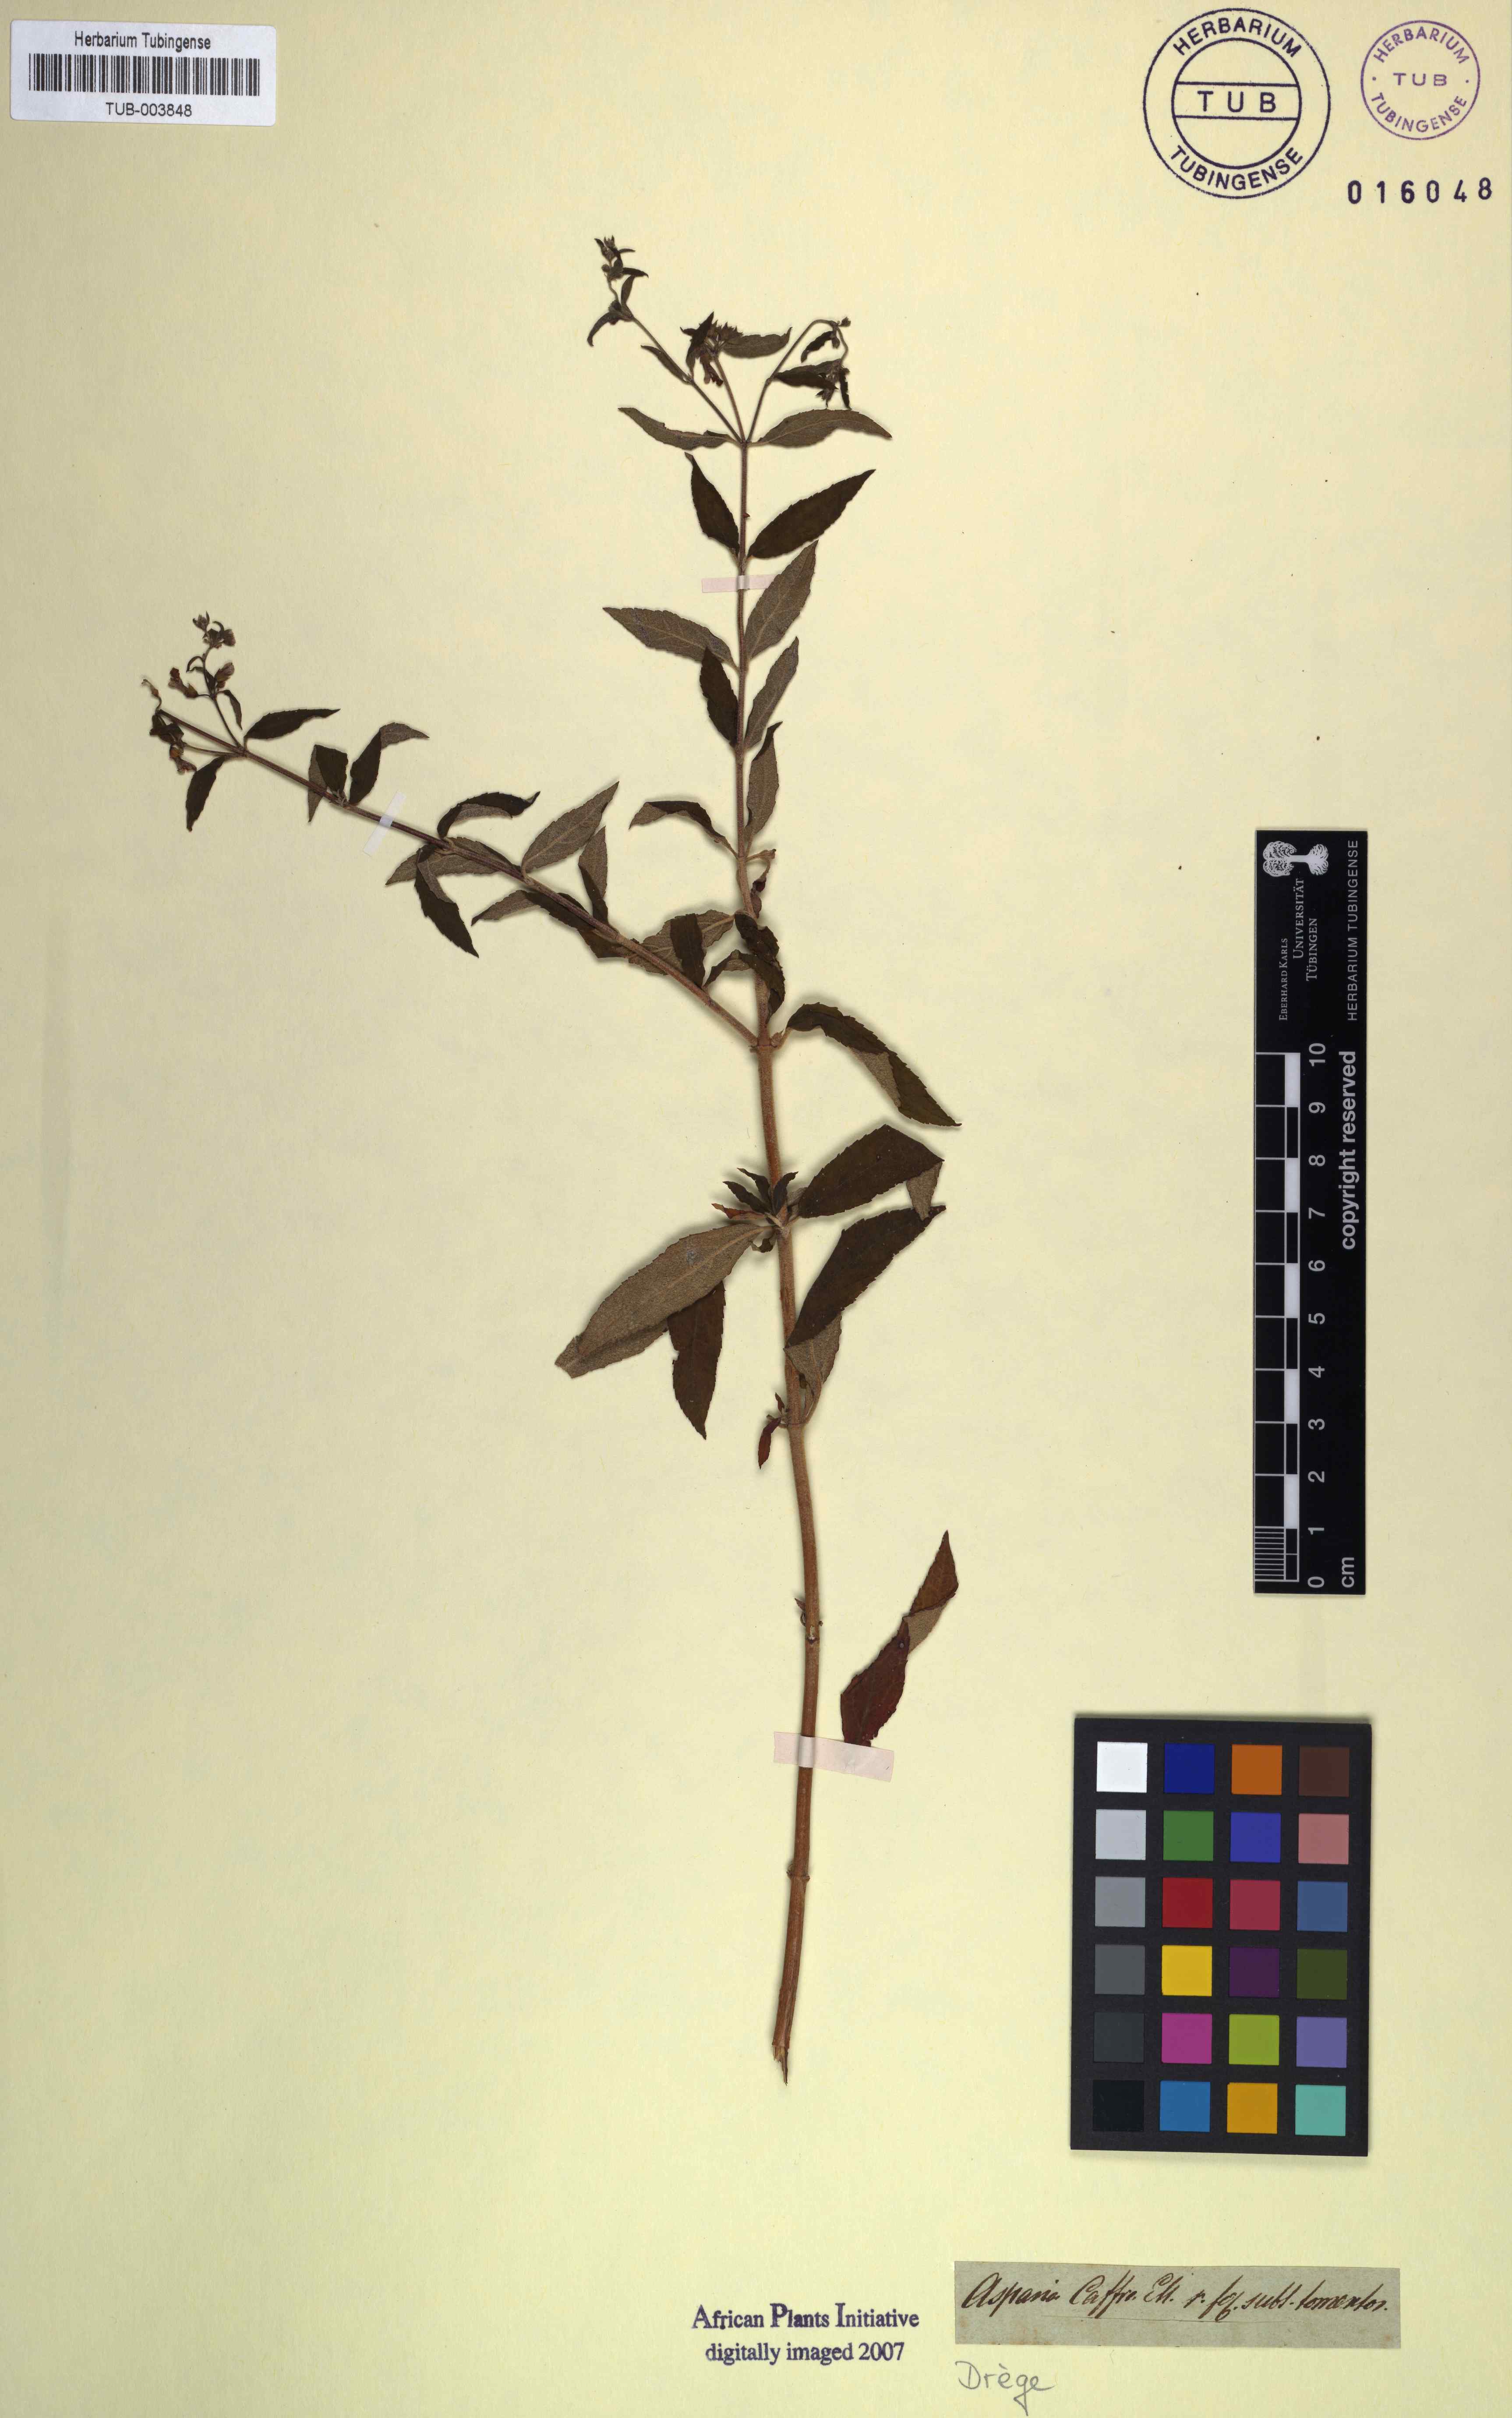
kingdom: Plantae
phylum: Tracheophyta
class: Magnoliopsida
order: Lamiales
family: Lamiaceae
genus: Stachys
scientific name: Stachys caffra
